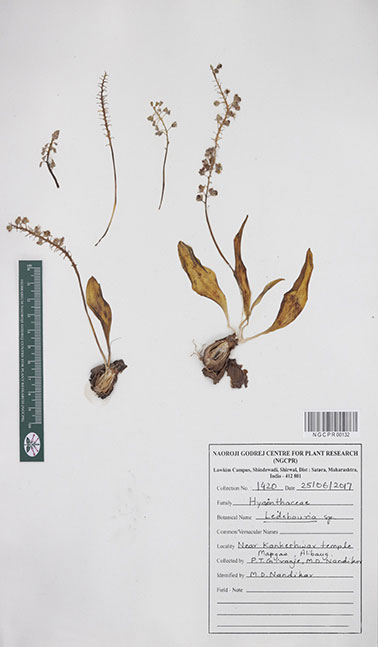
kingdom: Plantae
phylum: Tracheophyta
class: Liliopsida
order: Asparagales
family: Asparagaceae
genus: Ledebouria
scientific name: Ledebouria
